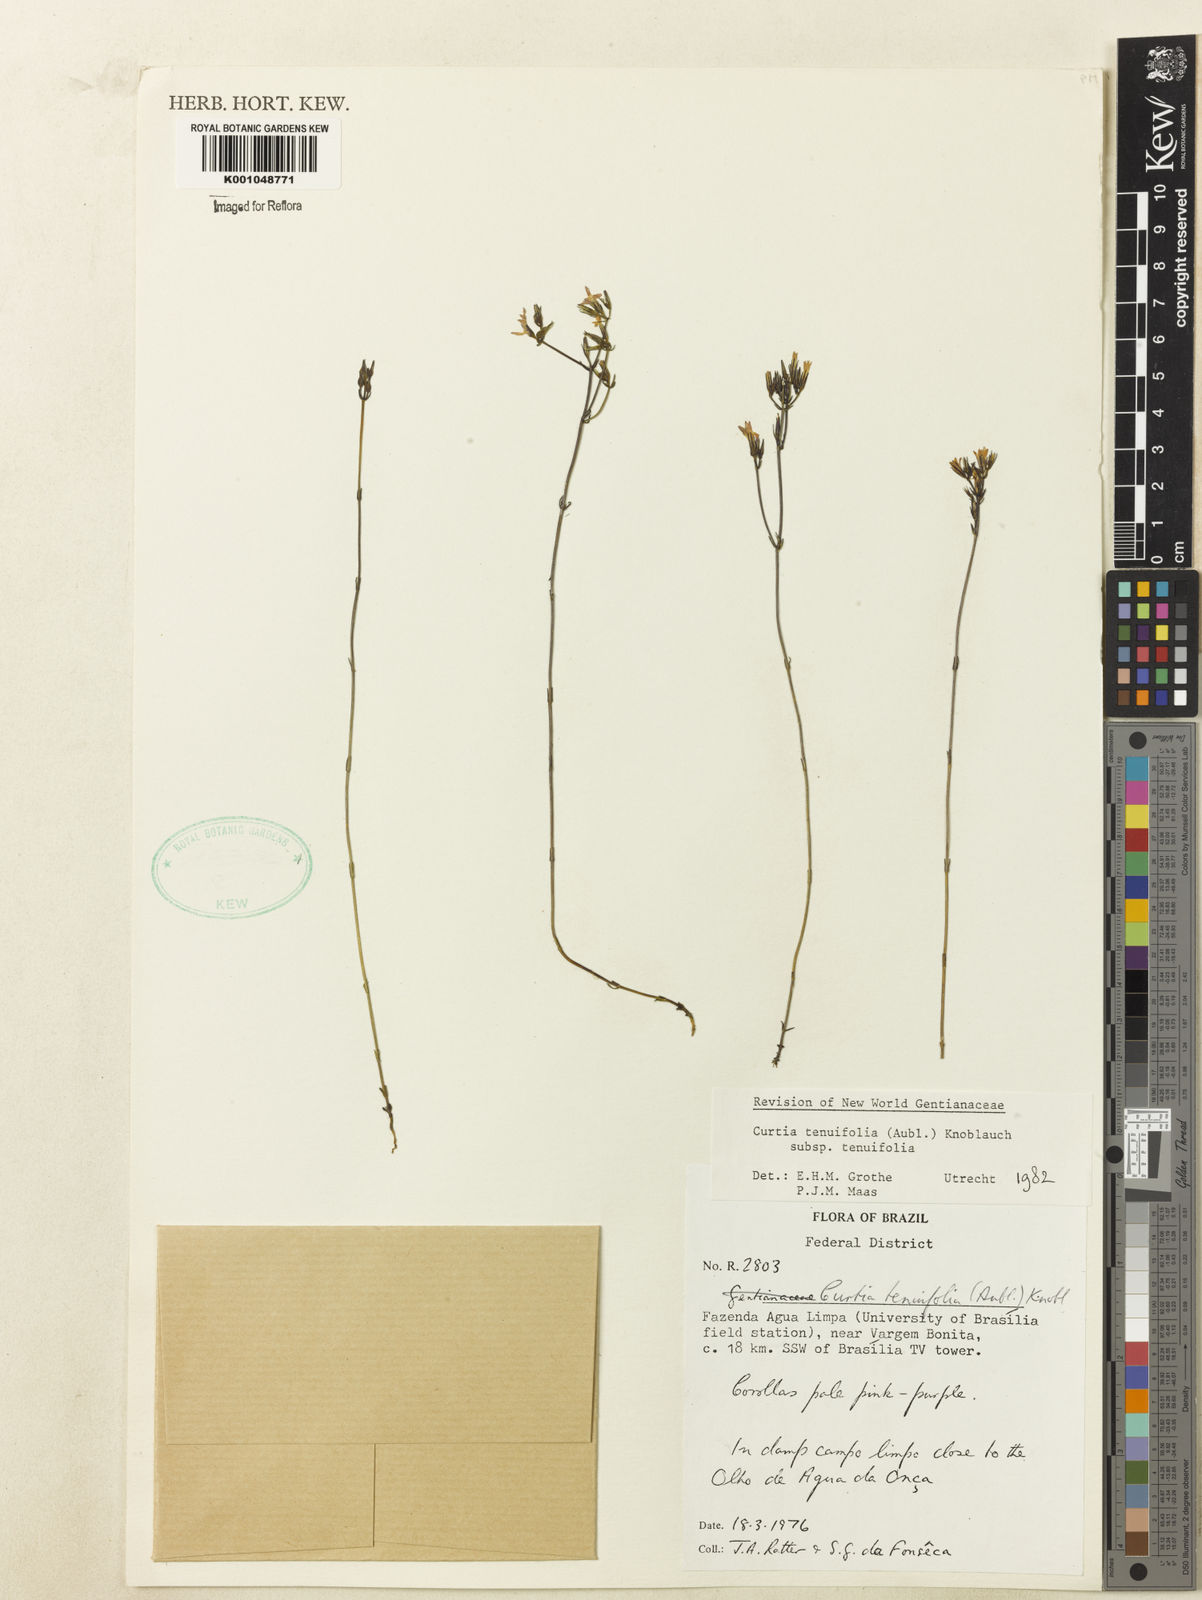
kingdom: Plantae
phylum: Tracheophyta
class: Magnoliopsida
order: Gentianales
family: Gentianaceae
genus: Curtia
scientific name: Curtia tenuifolia
